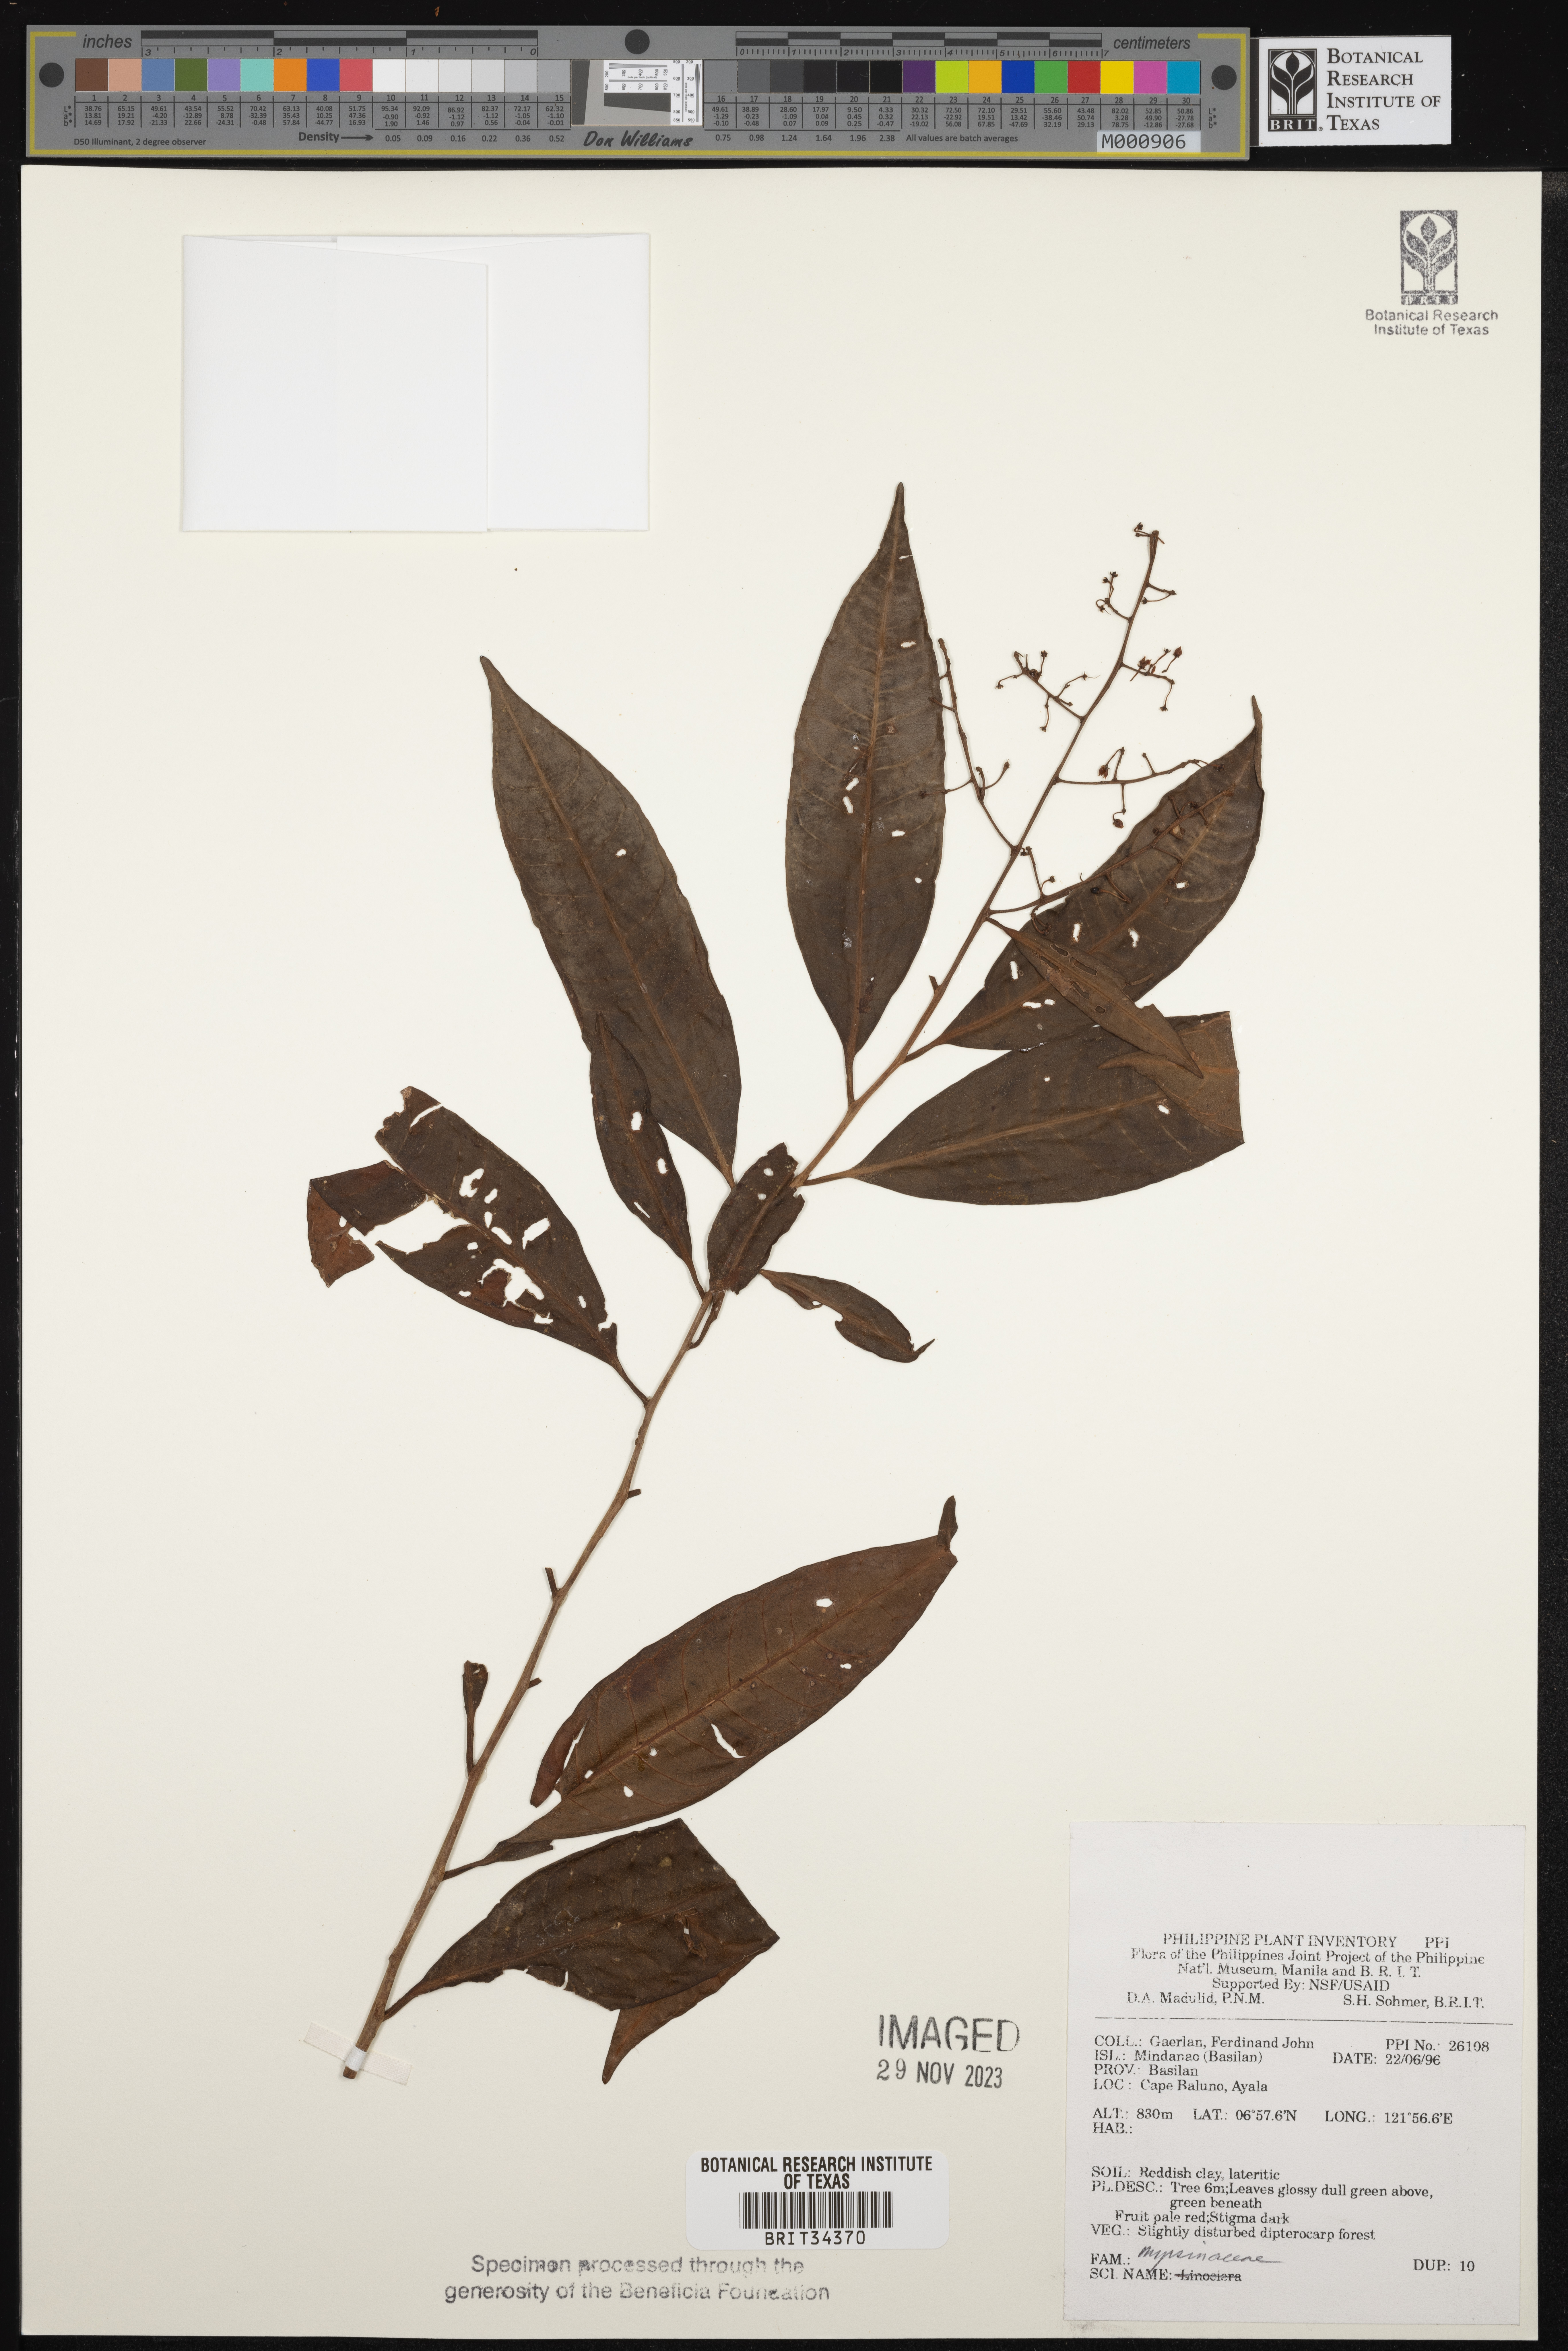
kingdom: Plantae
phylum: Tracheophyta
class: Magnoliopsida
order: Ericales
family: Primulaceae
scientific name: Primulaceae
